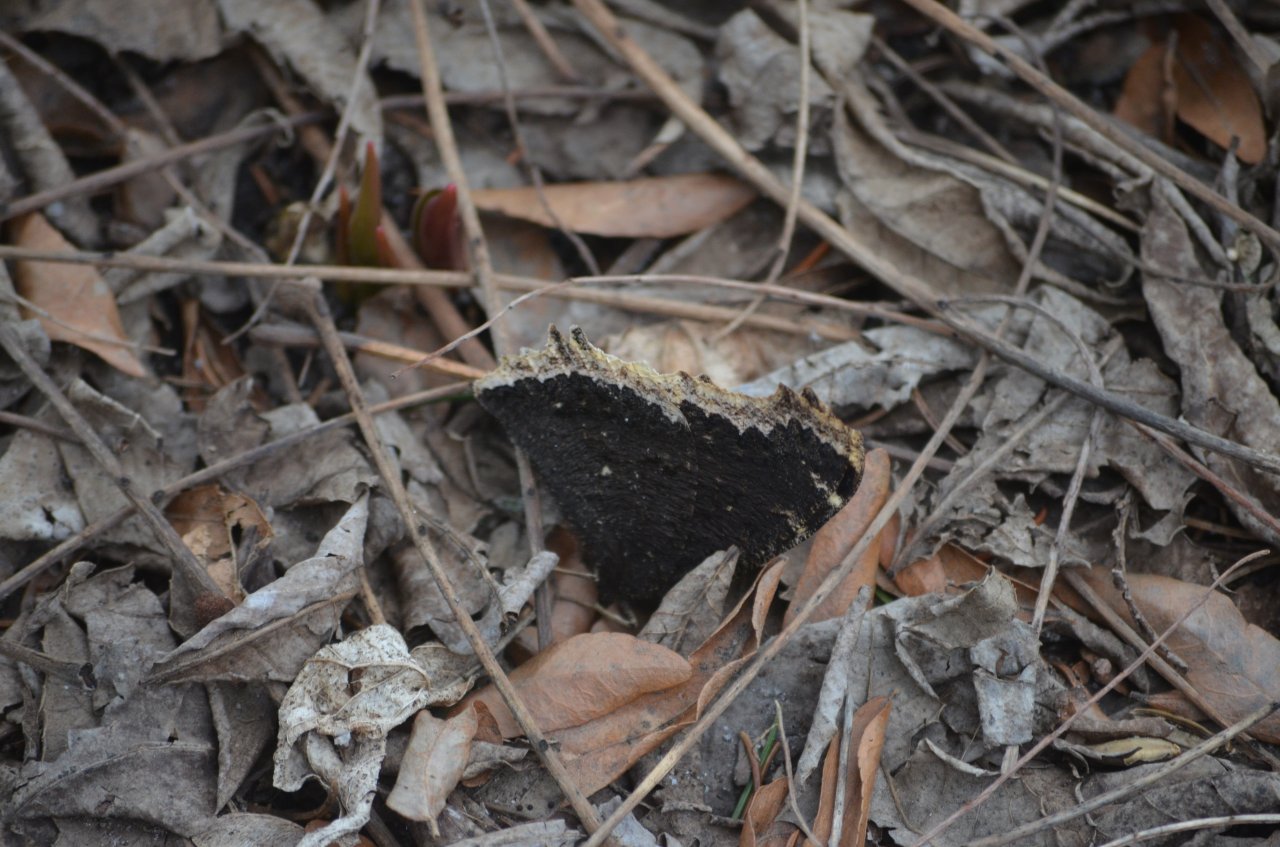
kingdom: Animalia
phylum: Arthropoda
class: Insecta
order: Lepidoptera
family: Nymphalidae
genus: Nymphalis
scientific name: Nymphalis antiopa
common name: Mourning Cloak
